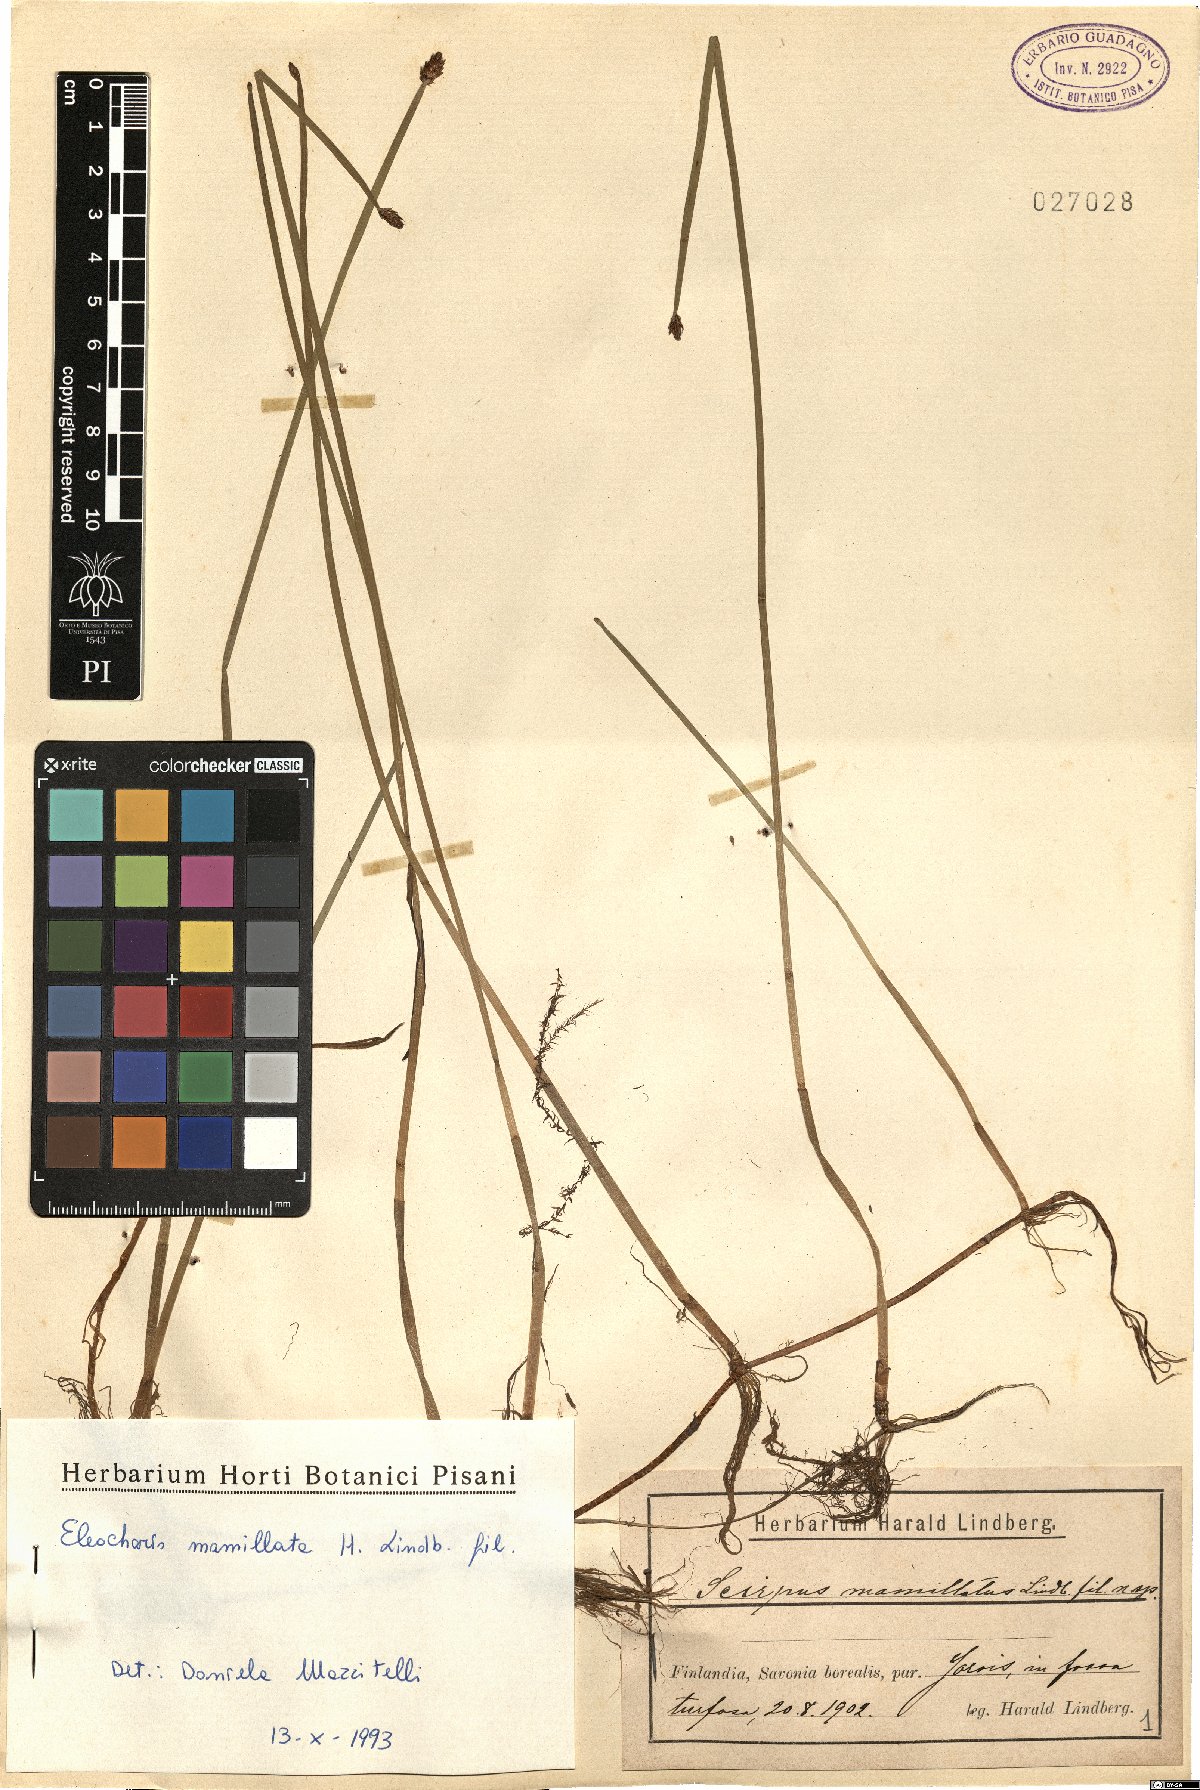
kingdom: Plantae
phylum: Tracheophyta
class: Liliopsida
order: Poales
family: Cyperaceae
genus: Eleocharis
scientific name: Eleocharis mamillata
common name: Northern spike-rush
